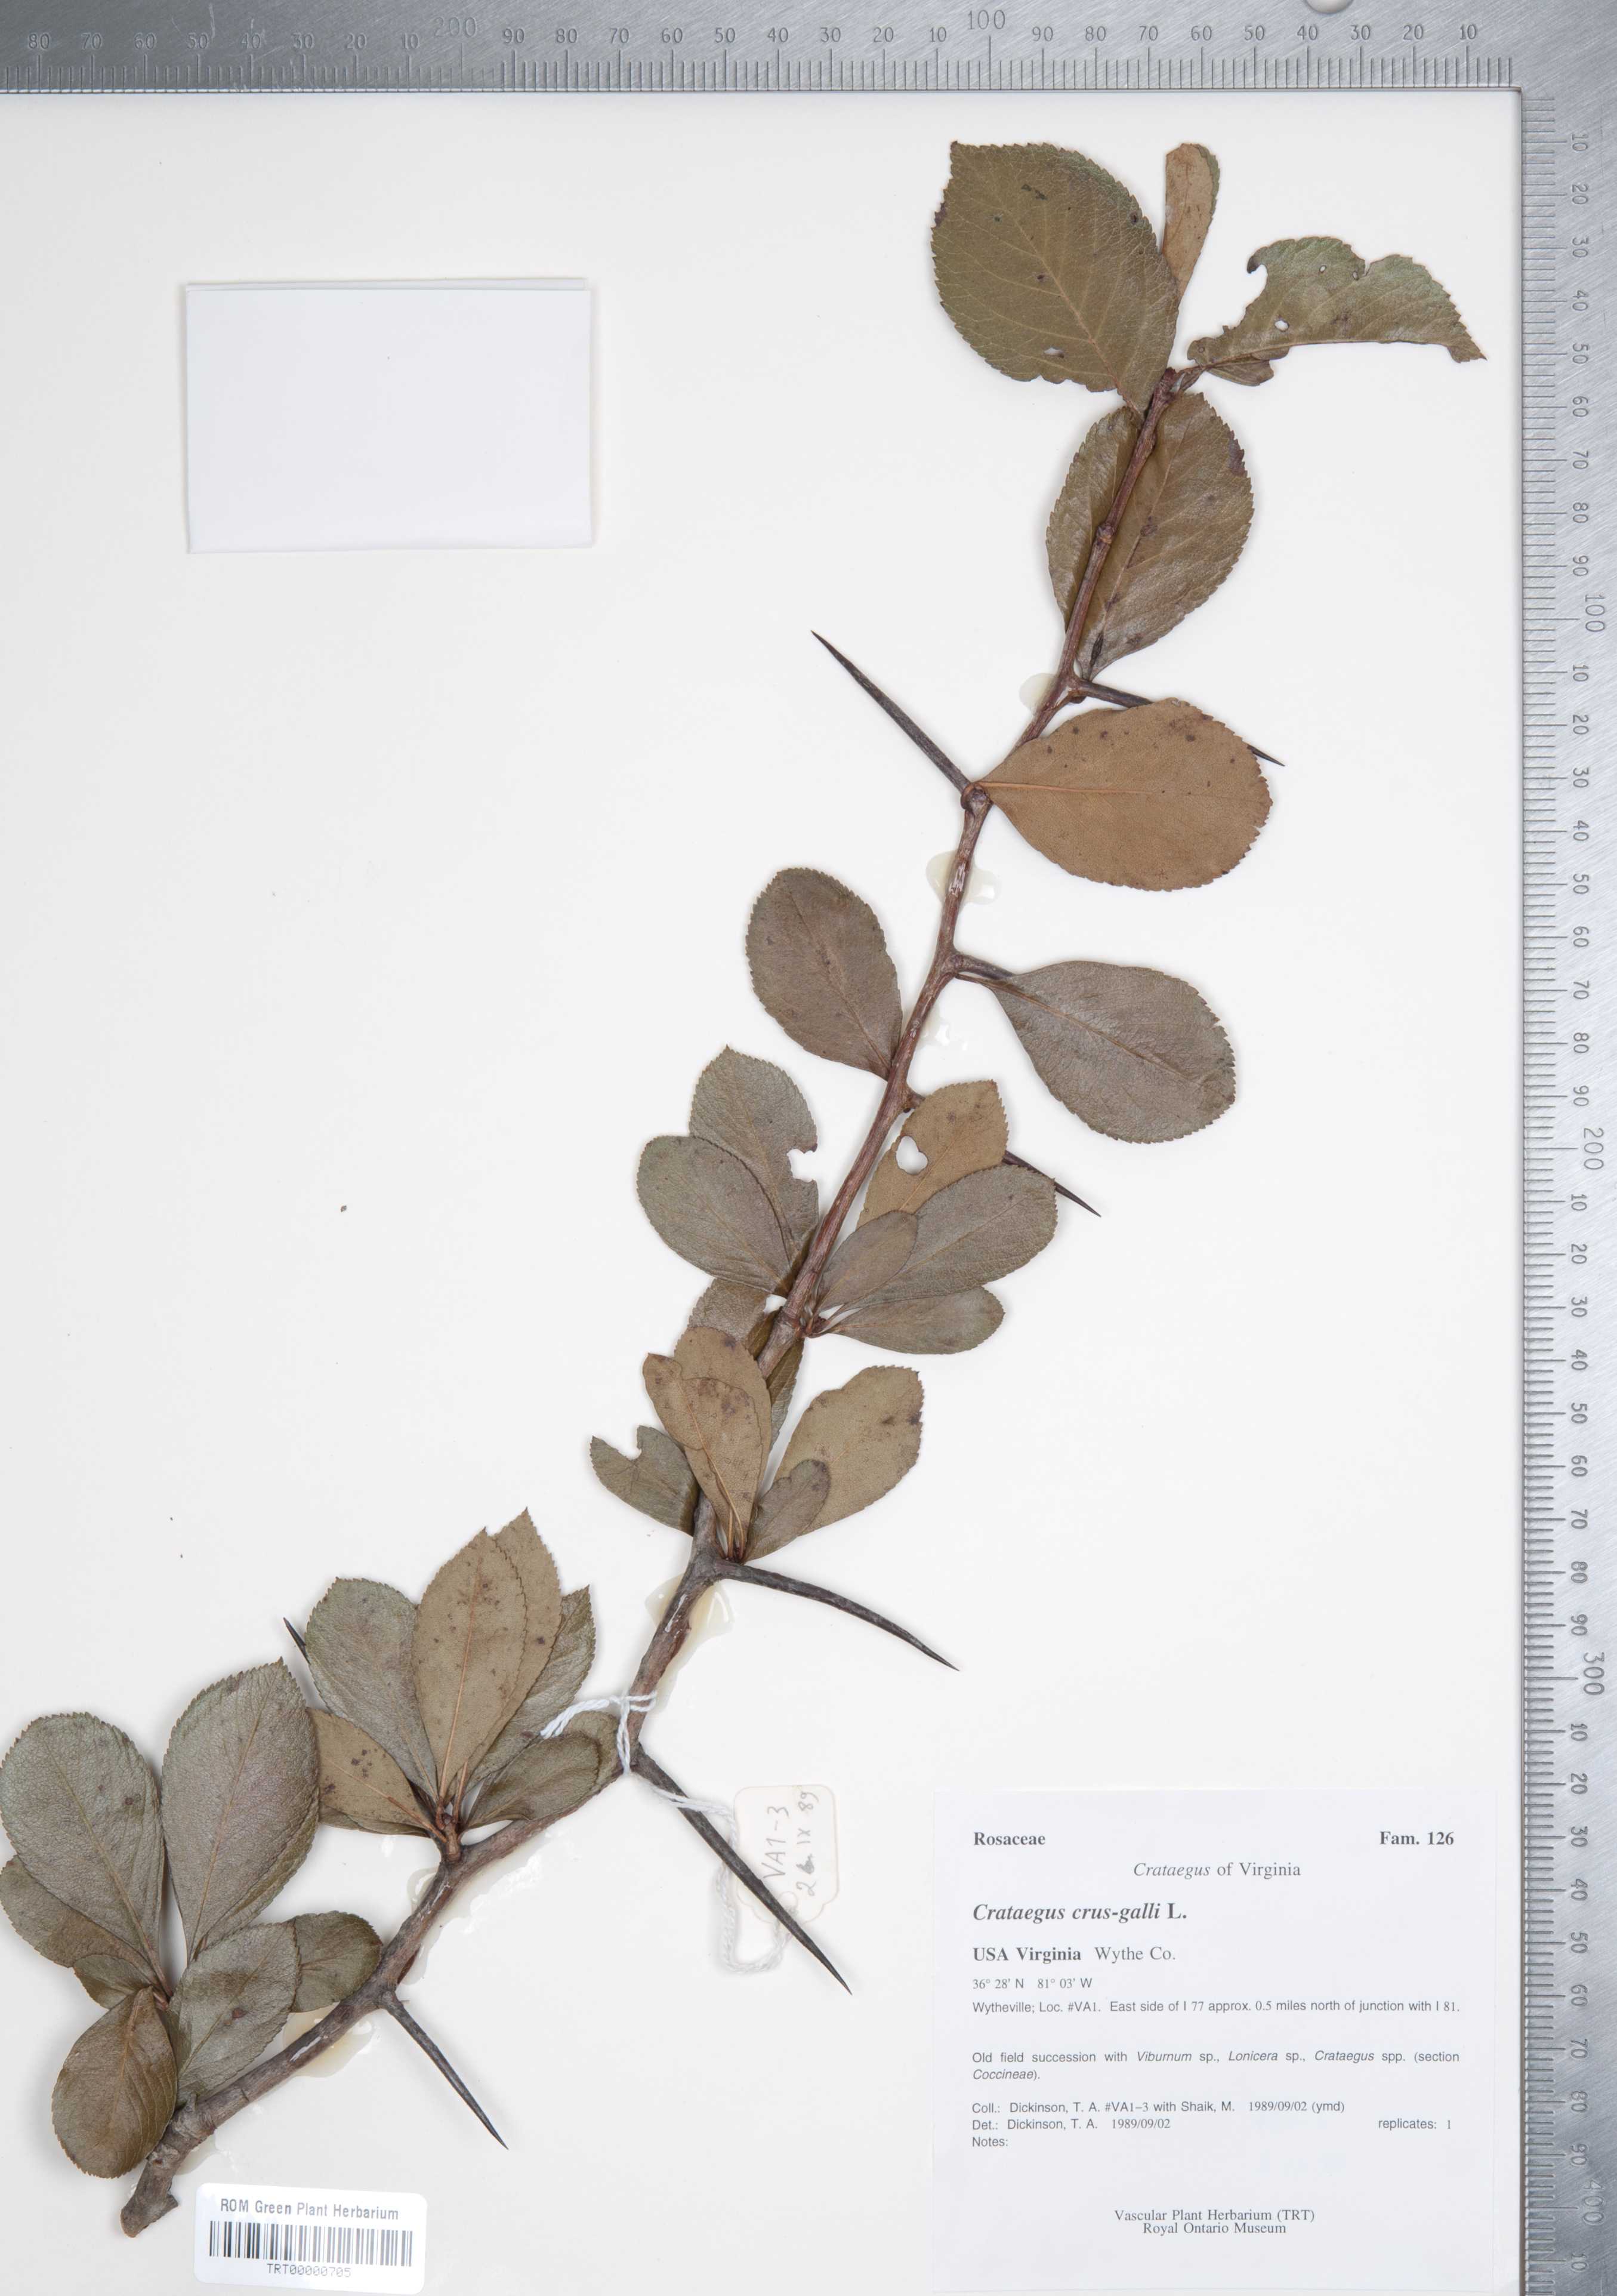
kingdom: Plantae
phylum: Tracheophyta
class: Magnoliopsida
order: Rosales
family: Rosaceae
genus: Crataegus
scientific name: Crataegus crus-galli
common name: Cockspurthorn
